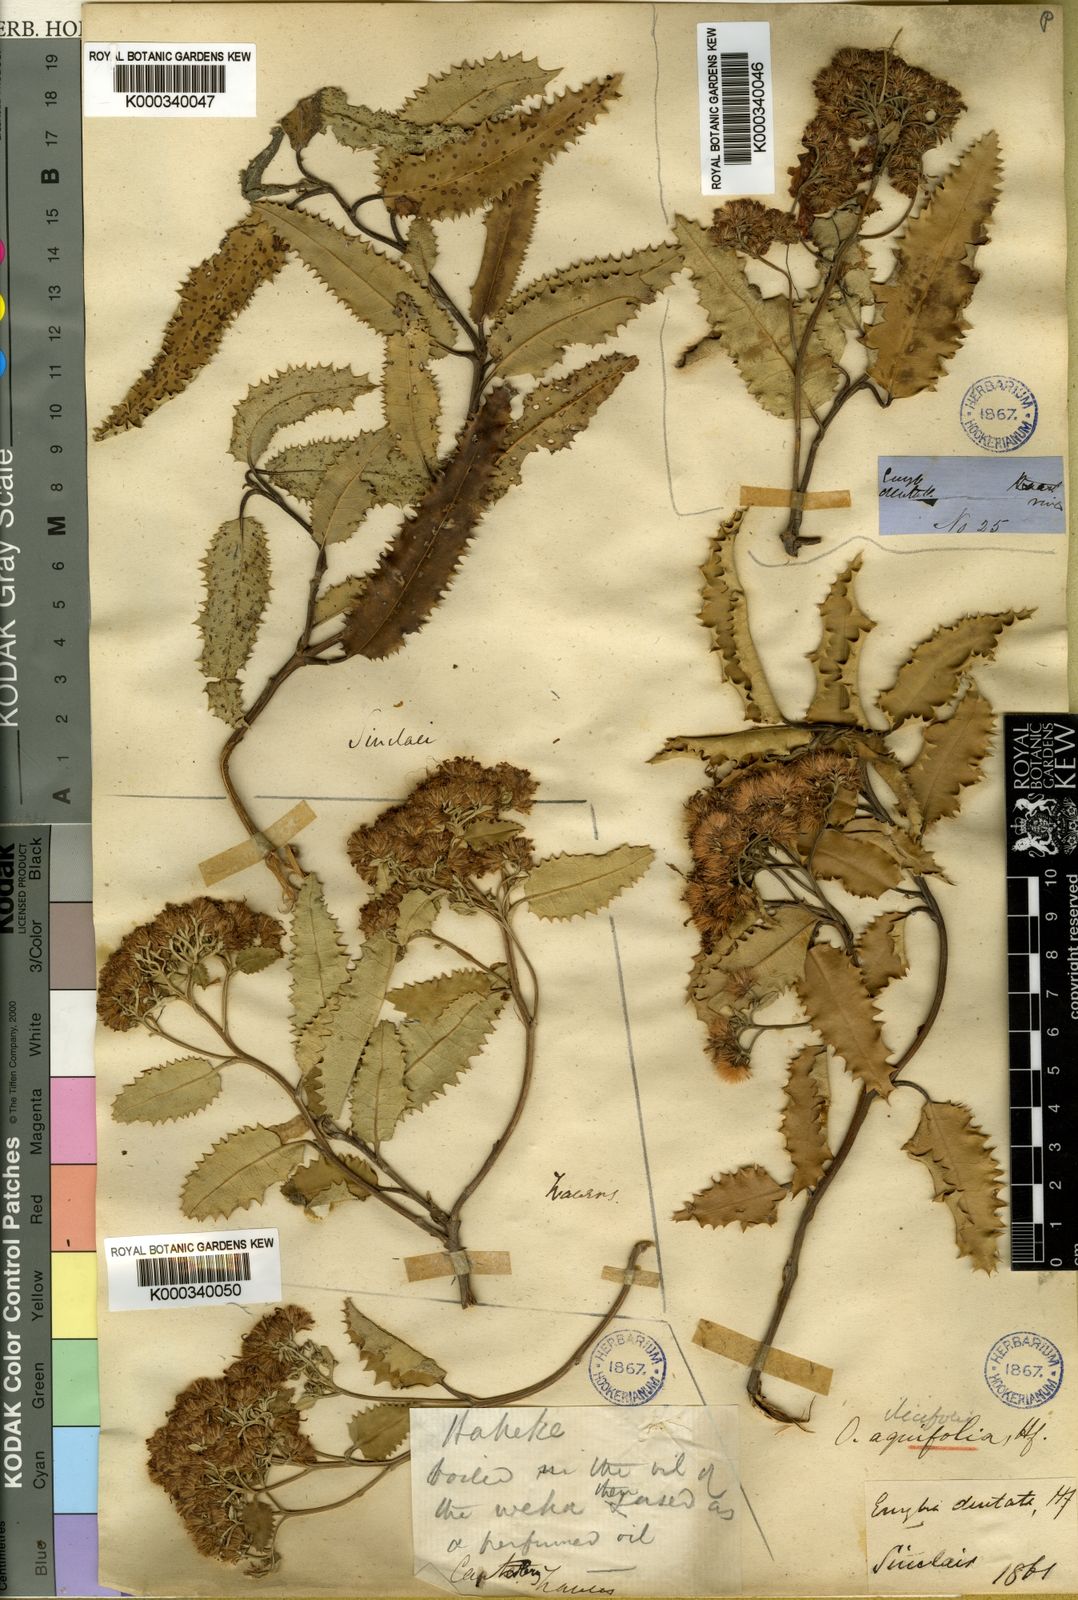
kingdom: Plantae
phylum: Tracheophyta
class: Magnoliopsida
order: Asterales
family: Asteraceae
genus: Olearia
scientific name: Olearia ilicifolia
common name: Maori-holly
